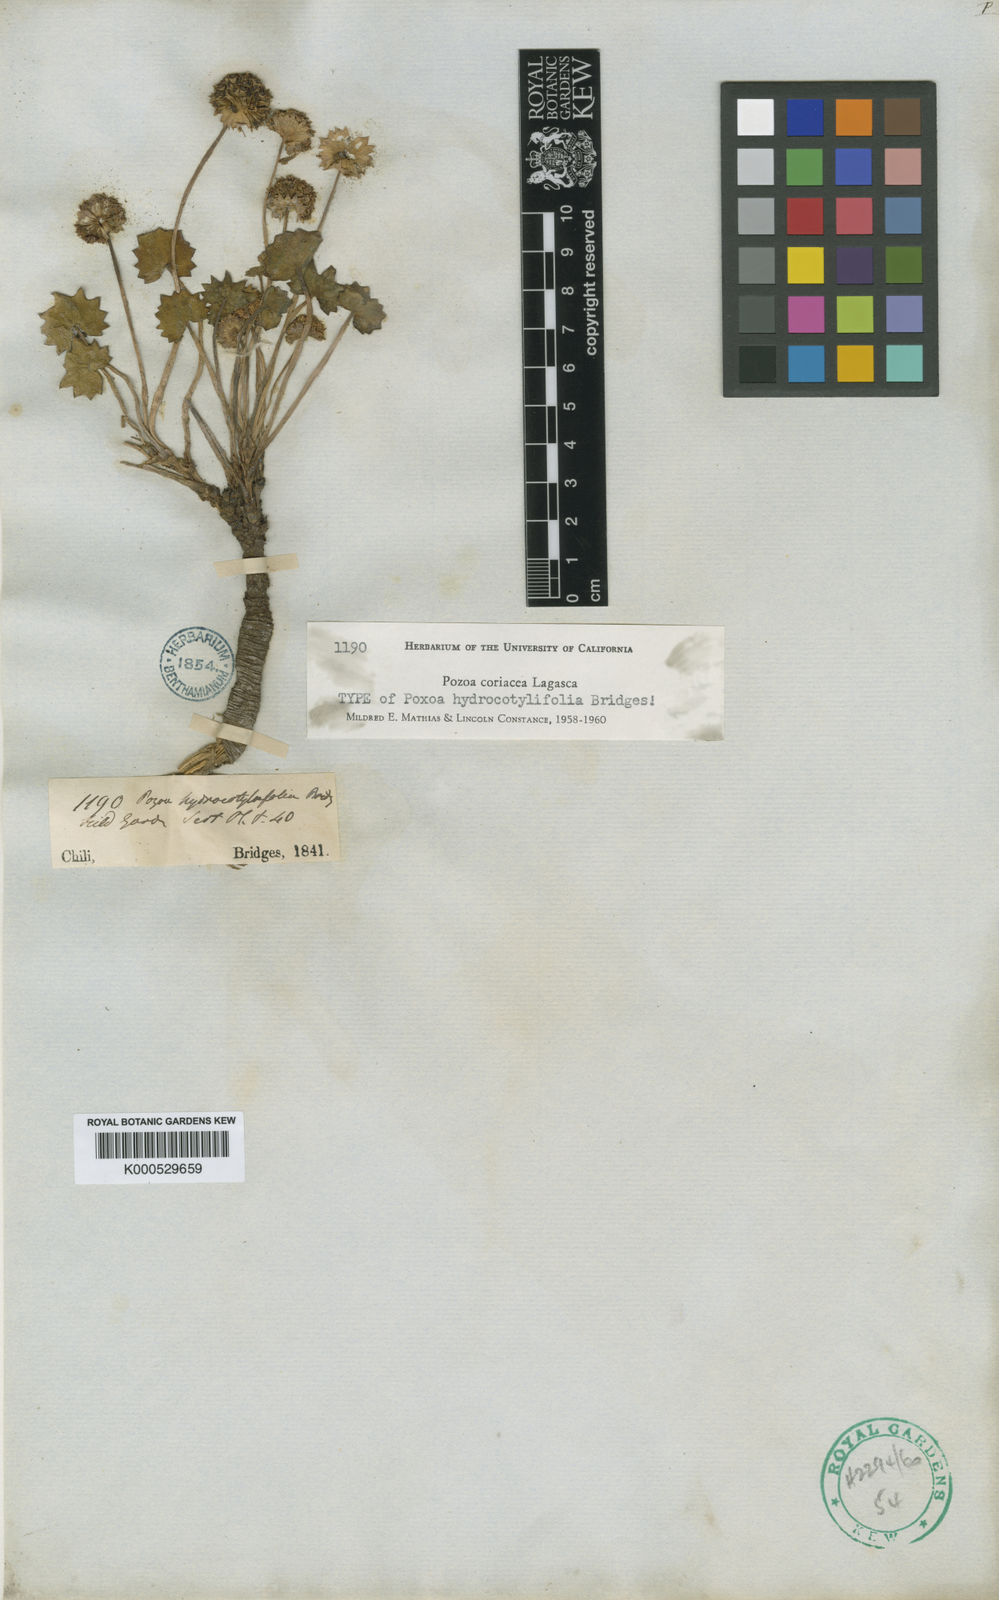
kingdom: Plantae
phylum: Tracheophyta
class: Magnoliopsida
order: Apiales
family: Apiaceae
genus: Pozoa
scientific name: Pozoa coriacea
